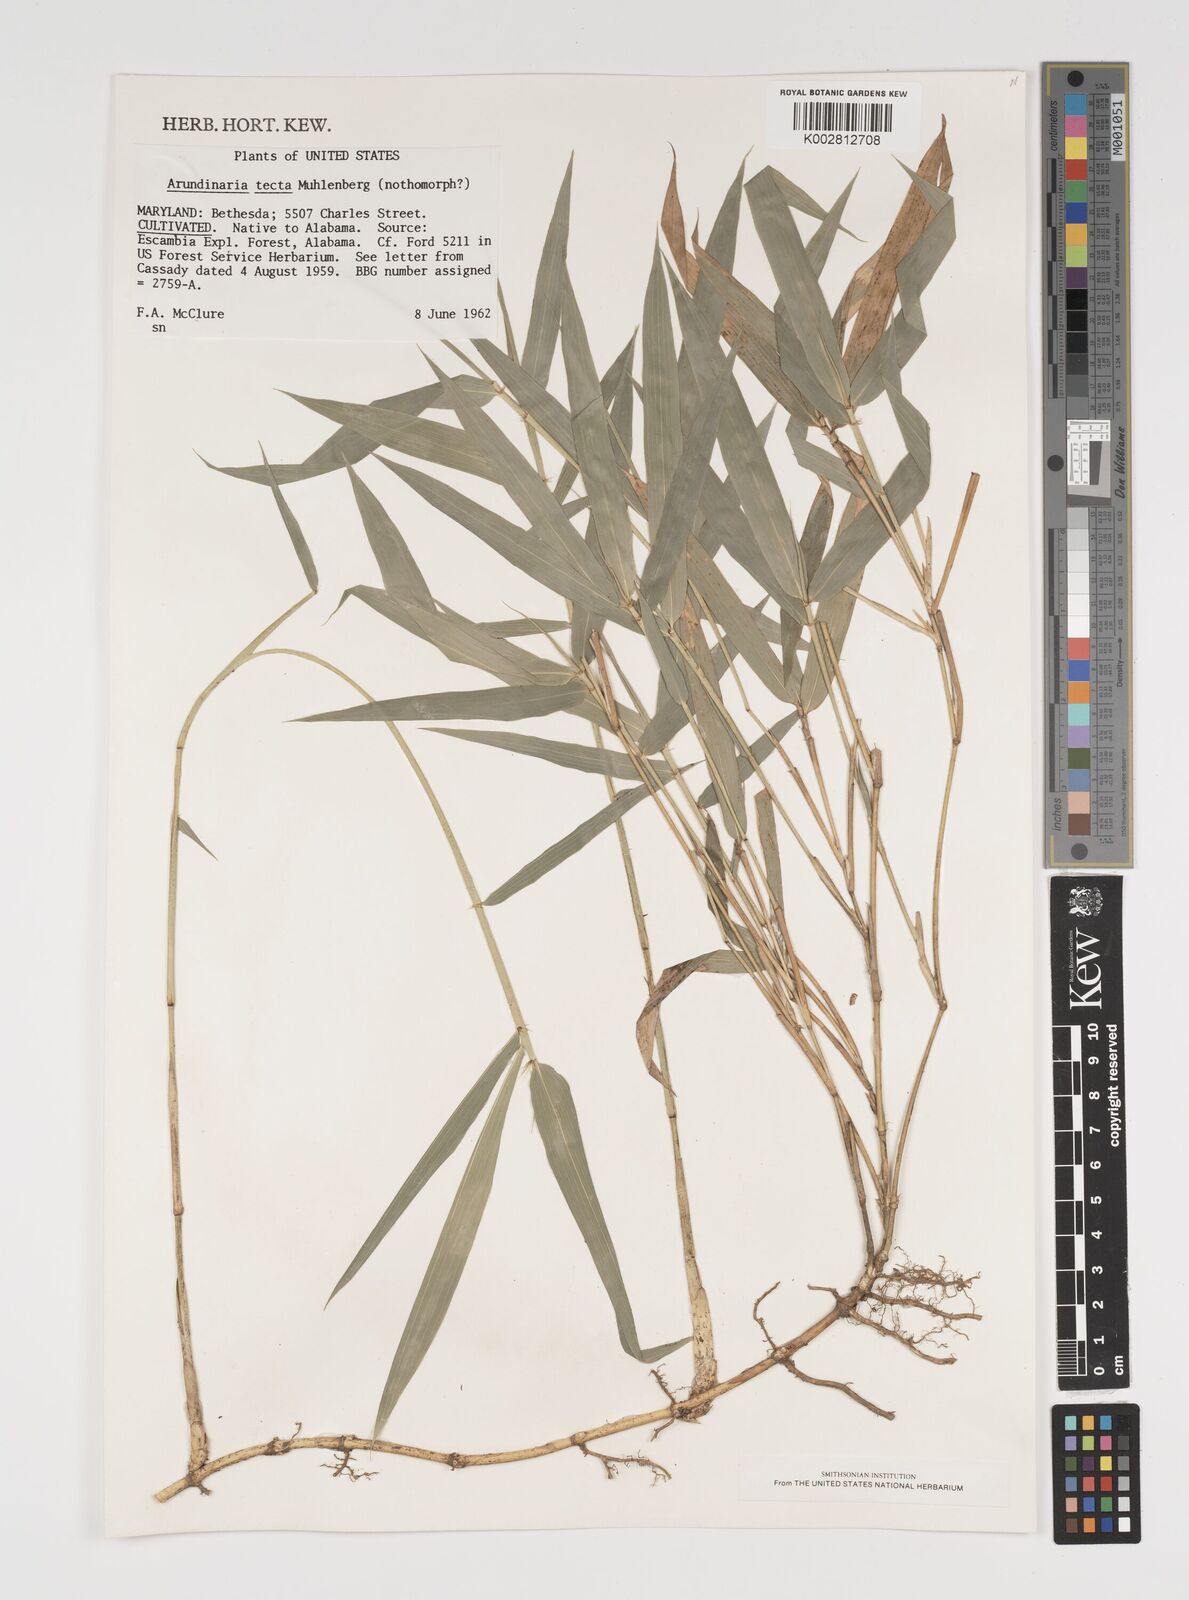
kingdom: Plantae
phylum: Tracheophyta
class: Liliopsida
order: Poales
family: Poaceae
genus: Arundinaria
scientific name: Arundinaria tecta
